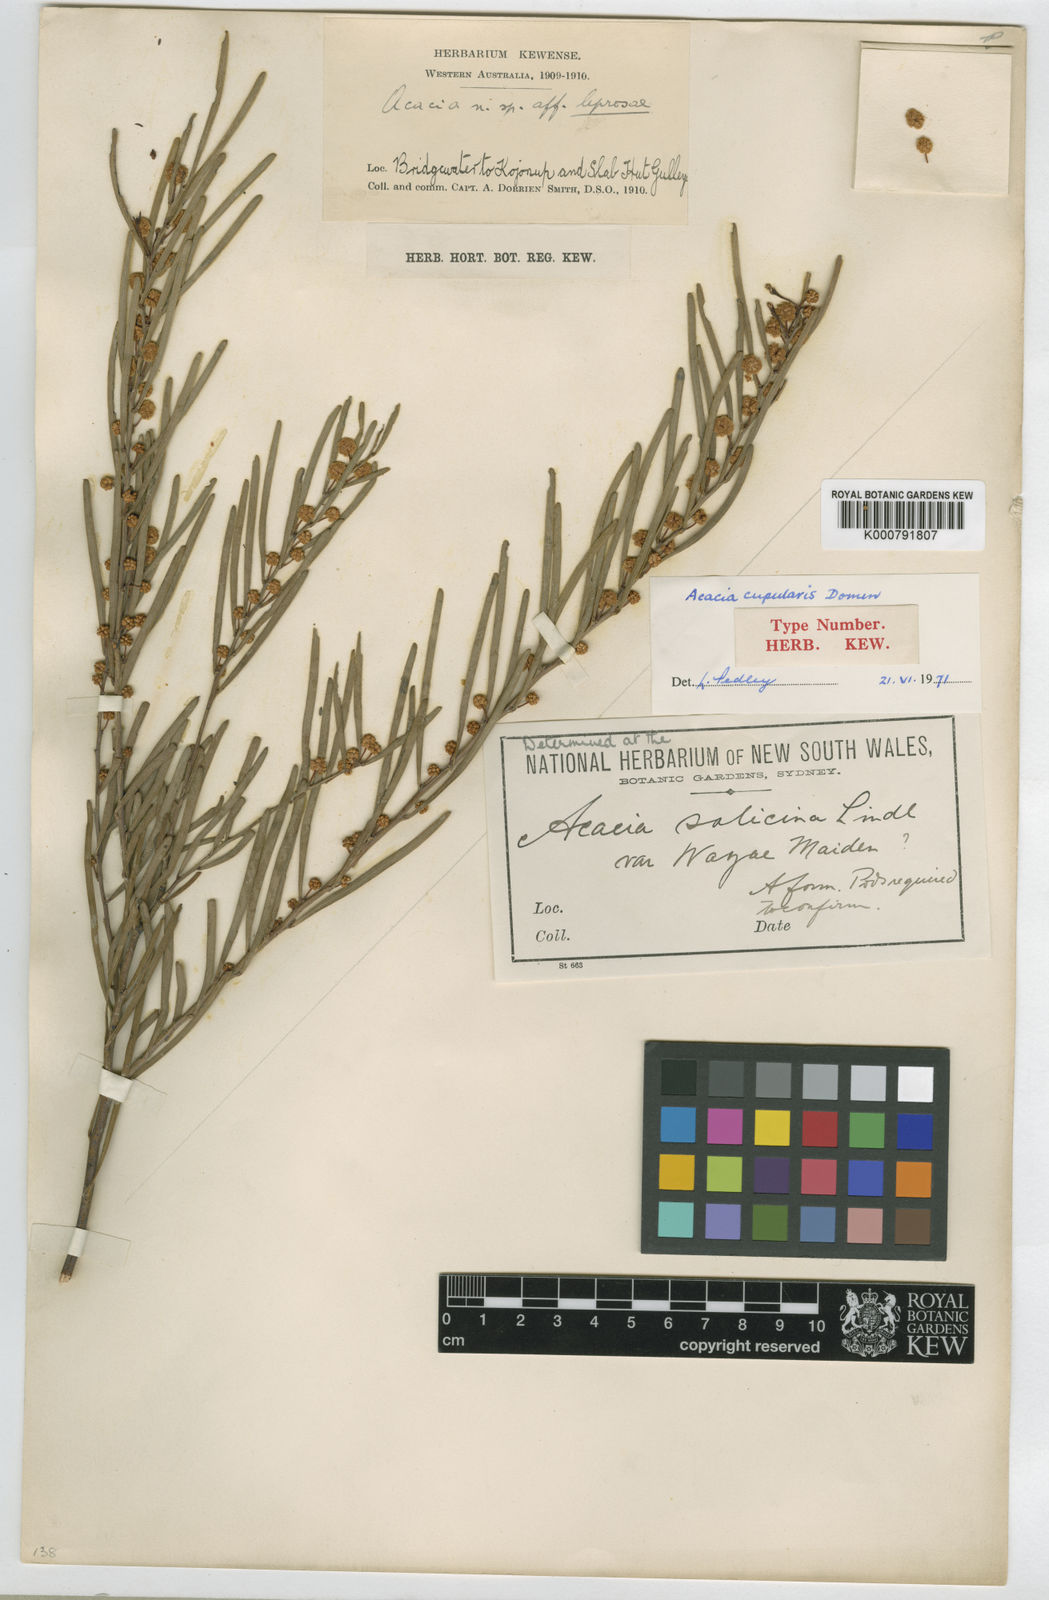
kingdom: Plantae
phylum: Tracheophyta
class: Magnoliopsida
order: Fabales
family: Fabaceae
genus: Acacia
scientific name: Acacia cupularis
